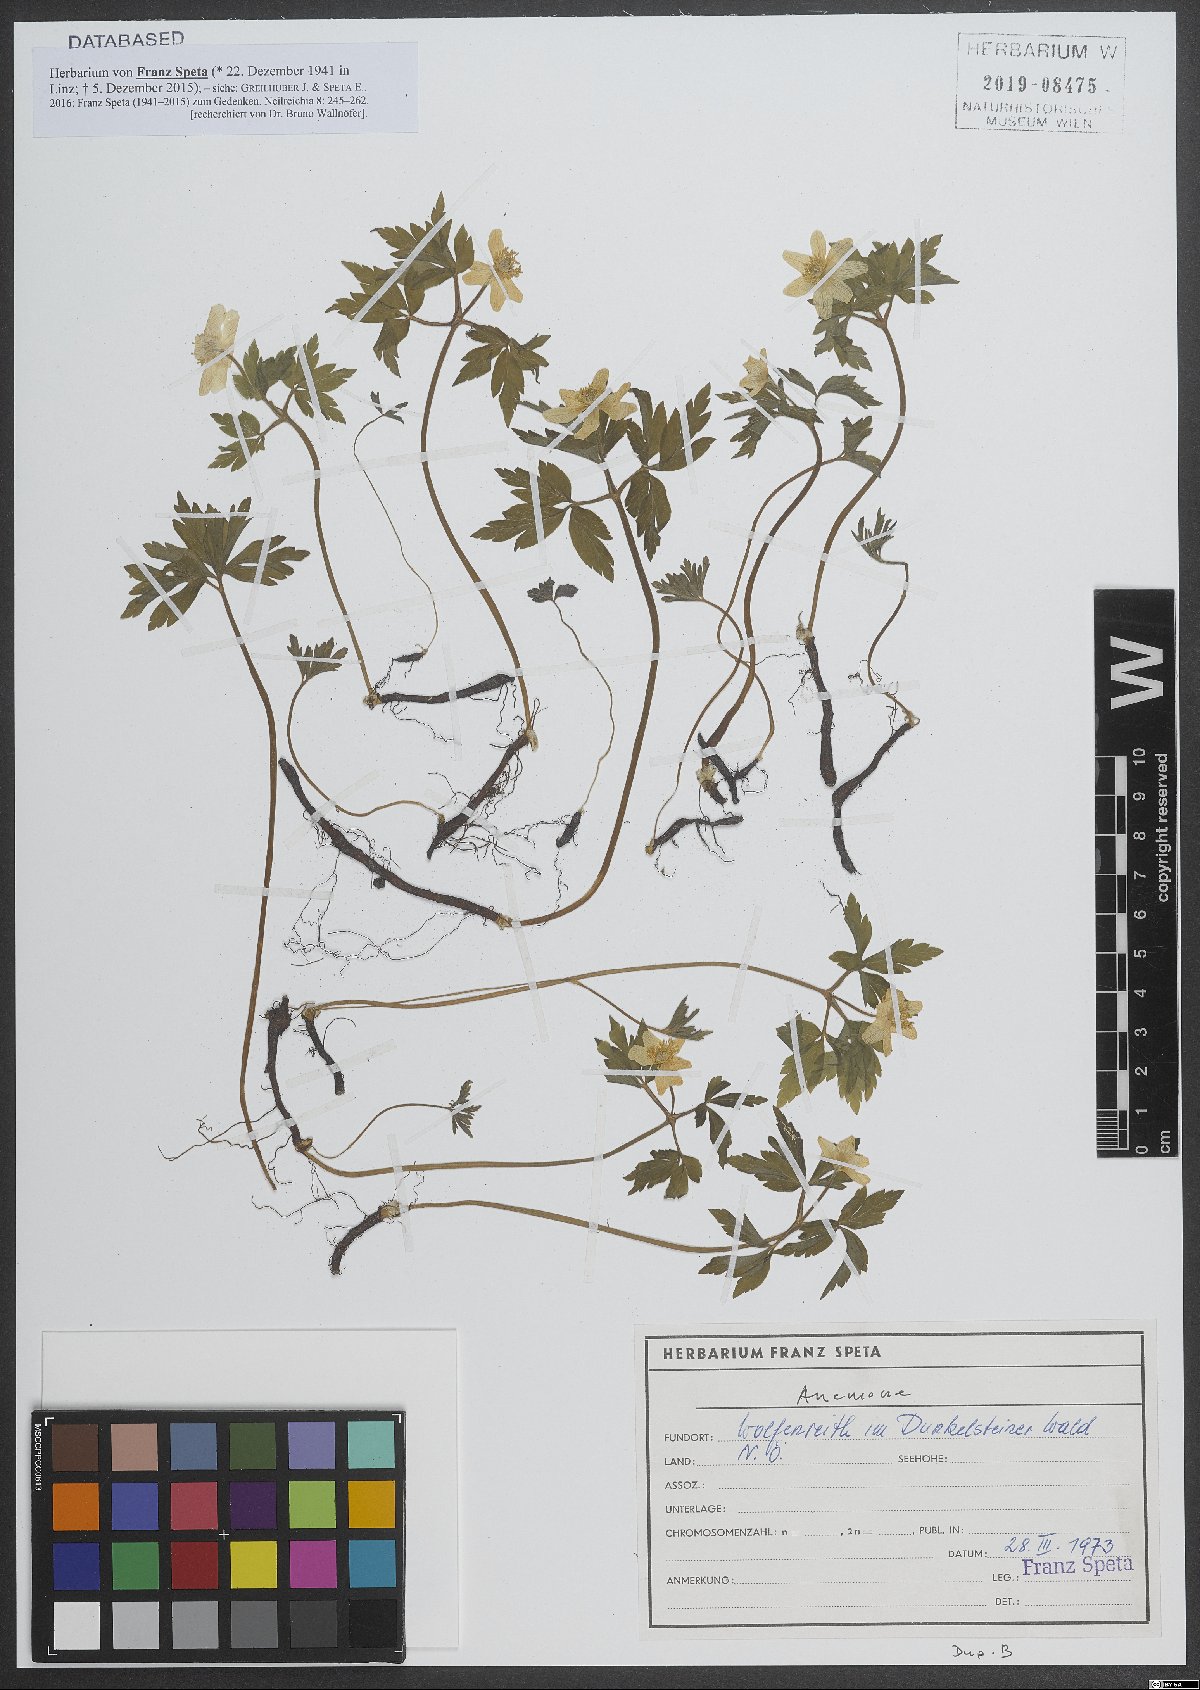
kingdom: Plantae
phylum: Tracheophyta
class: Magnoliopsida
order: Ranunculales
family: Ranunculaceae
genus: Anemone
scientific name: Anemone
